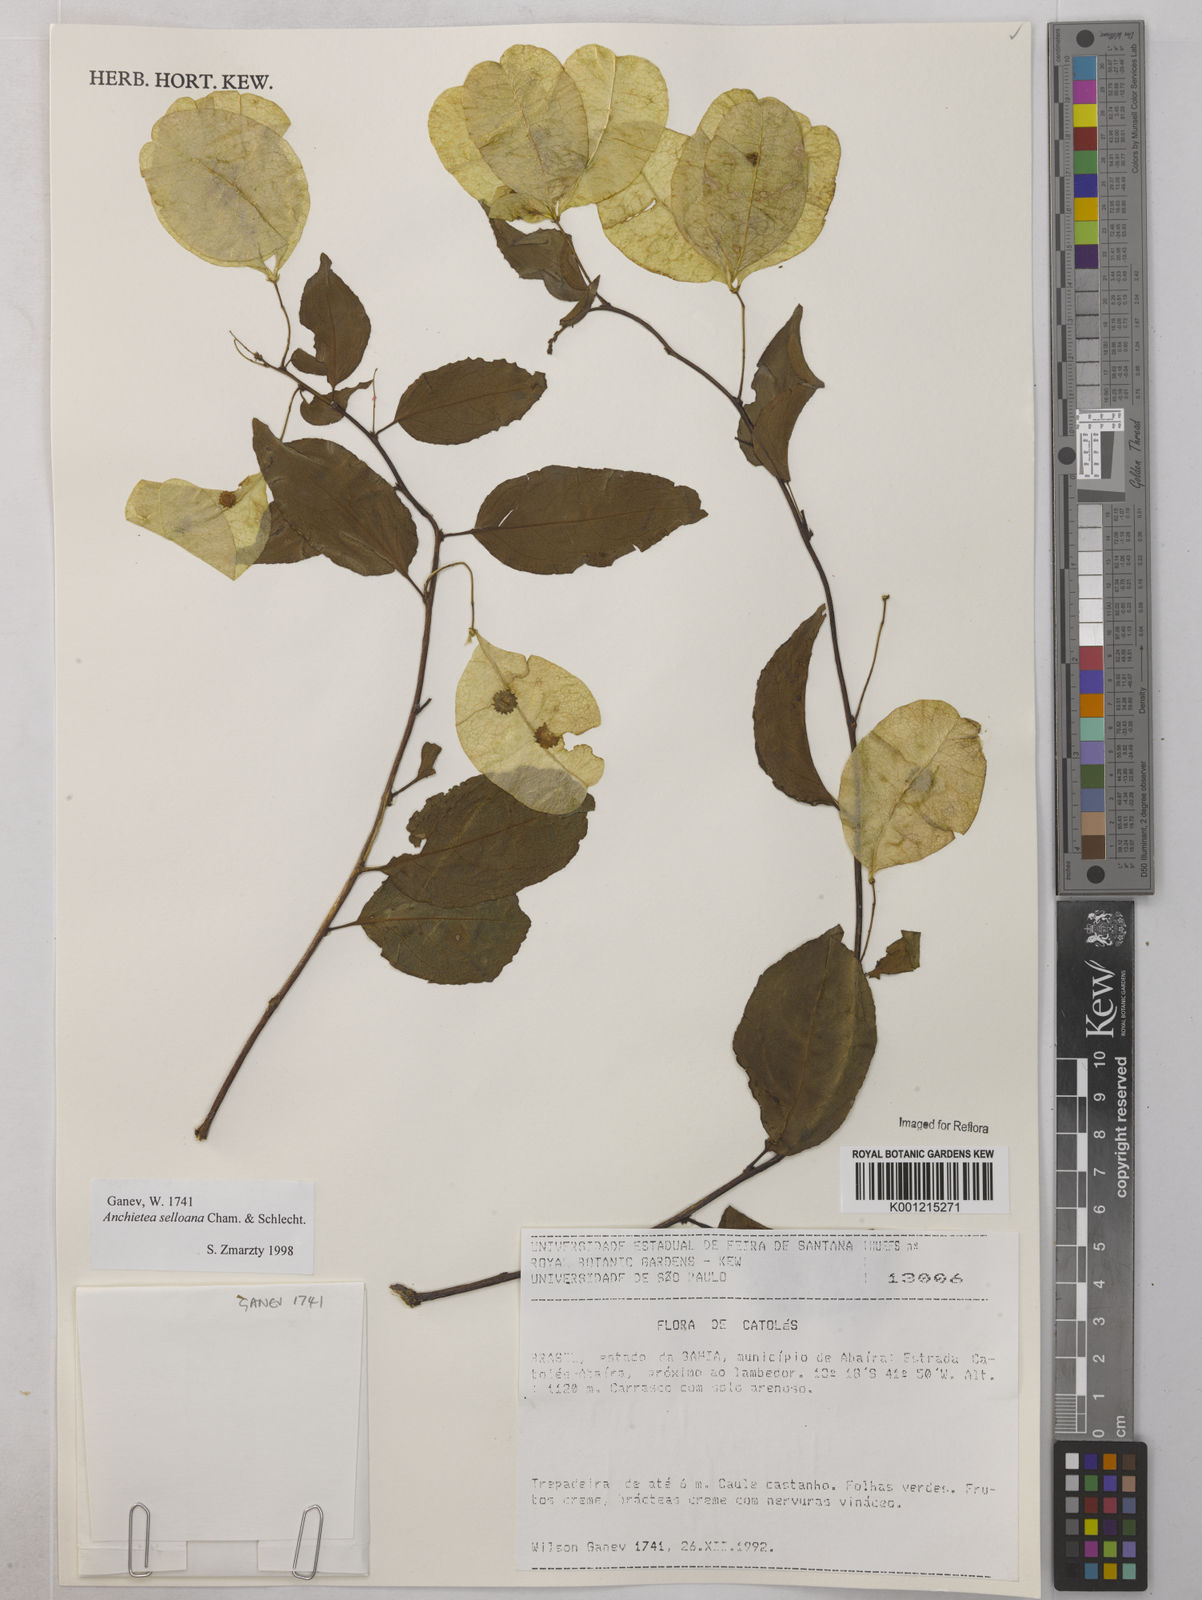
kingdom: Plantae
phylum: Tracheophyta
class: Magnoliopsida
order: Malpighiales
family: Violaceae
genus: Anchietea
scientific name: Anchietea sellowiana
